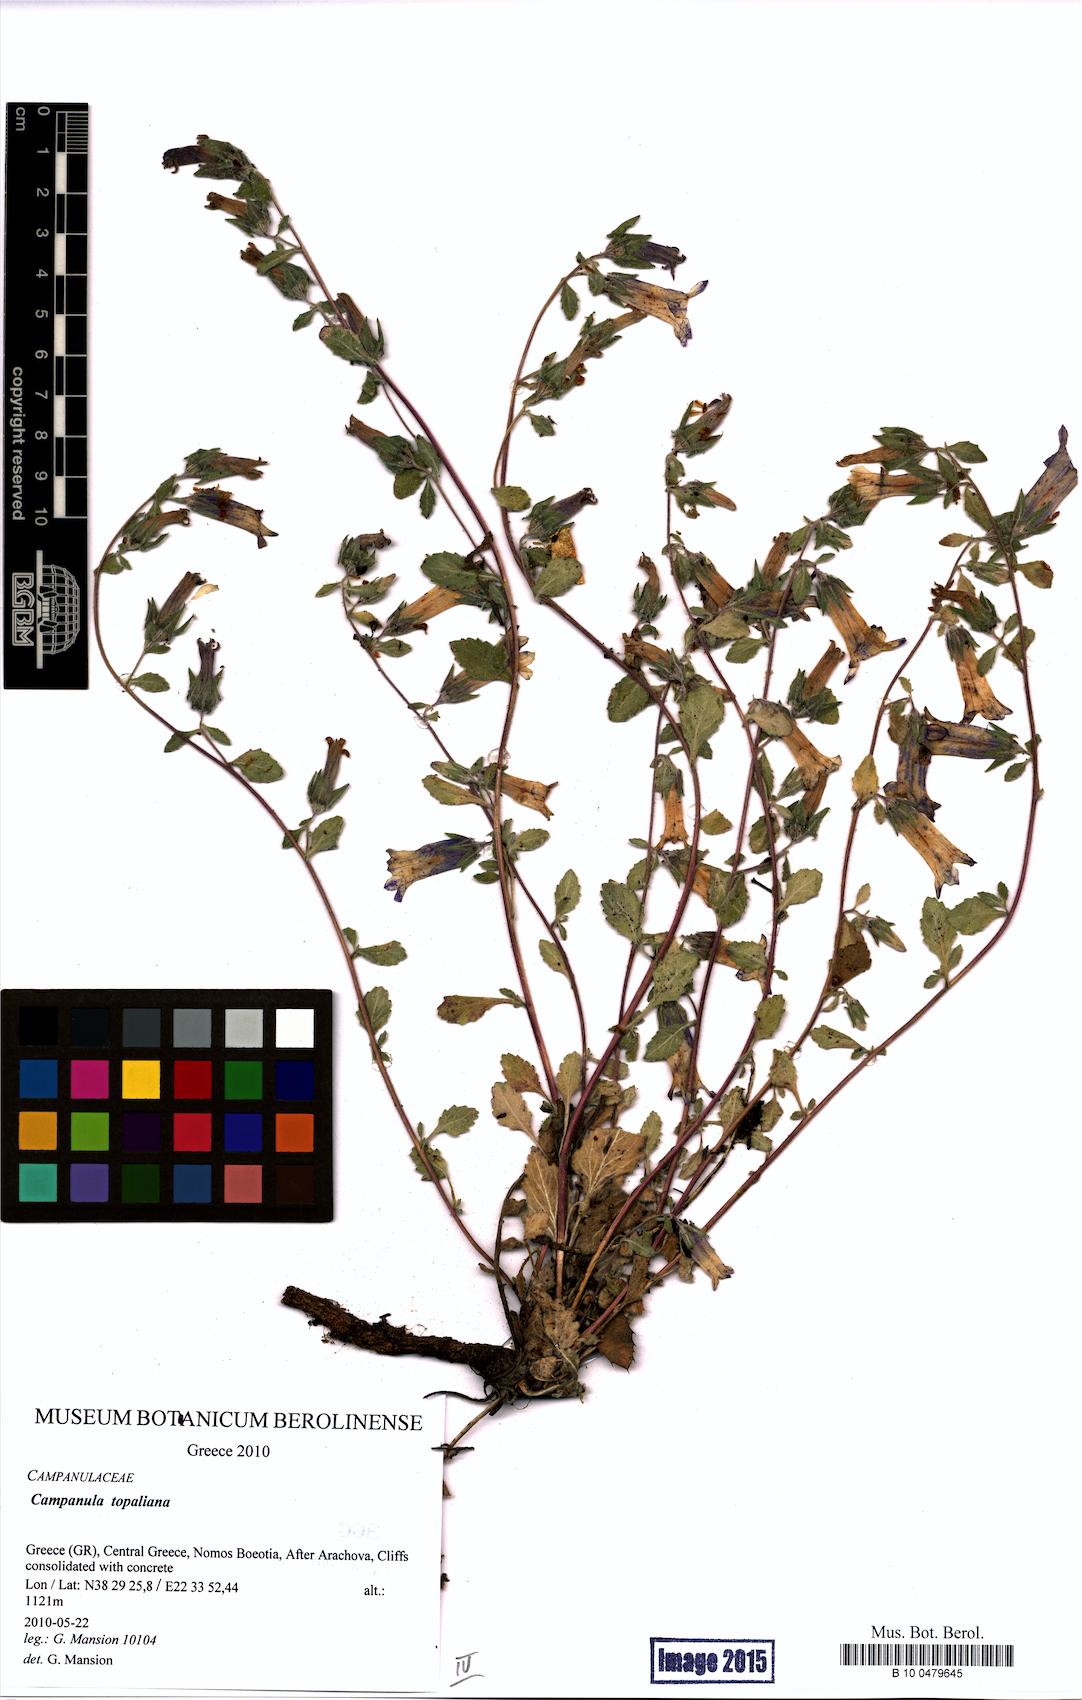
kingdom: Plantae
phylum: Tracheophyta
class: Magnoliopsida
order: Asterales
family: Campanulaceae
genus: Campanula
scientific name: Campanula topaliana
